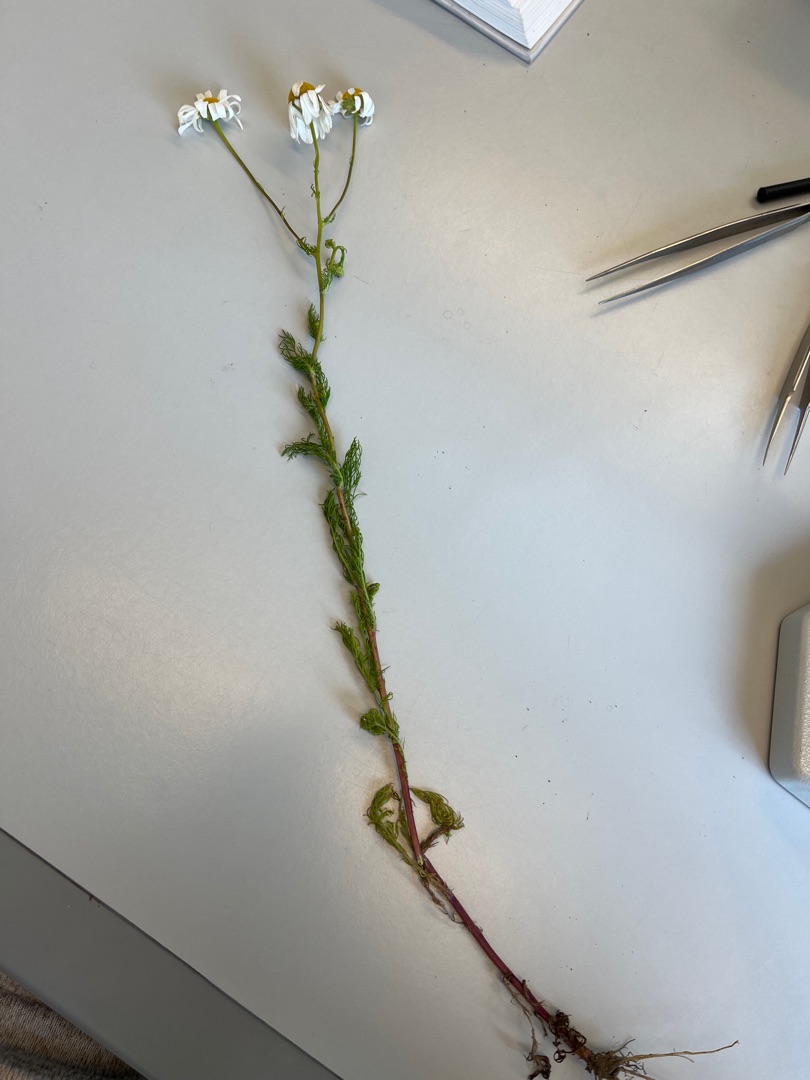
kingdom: Plantae
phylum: Tracheophyta
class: Magnoliopsida
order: Asterales
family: Asteraceae
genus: Tripleurospermum
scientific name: Tripleurospermum inodorum
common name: Lugtløs kamille
